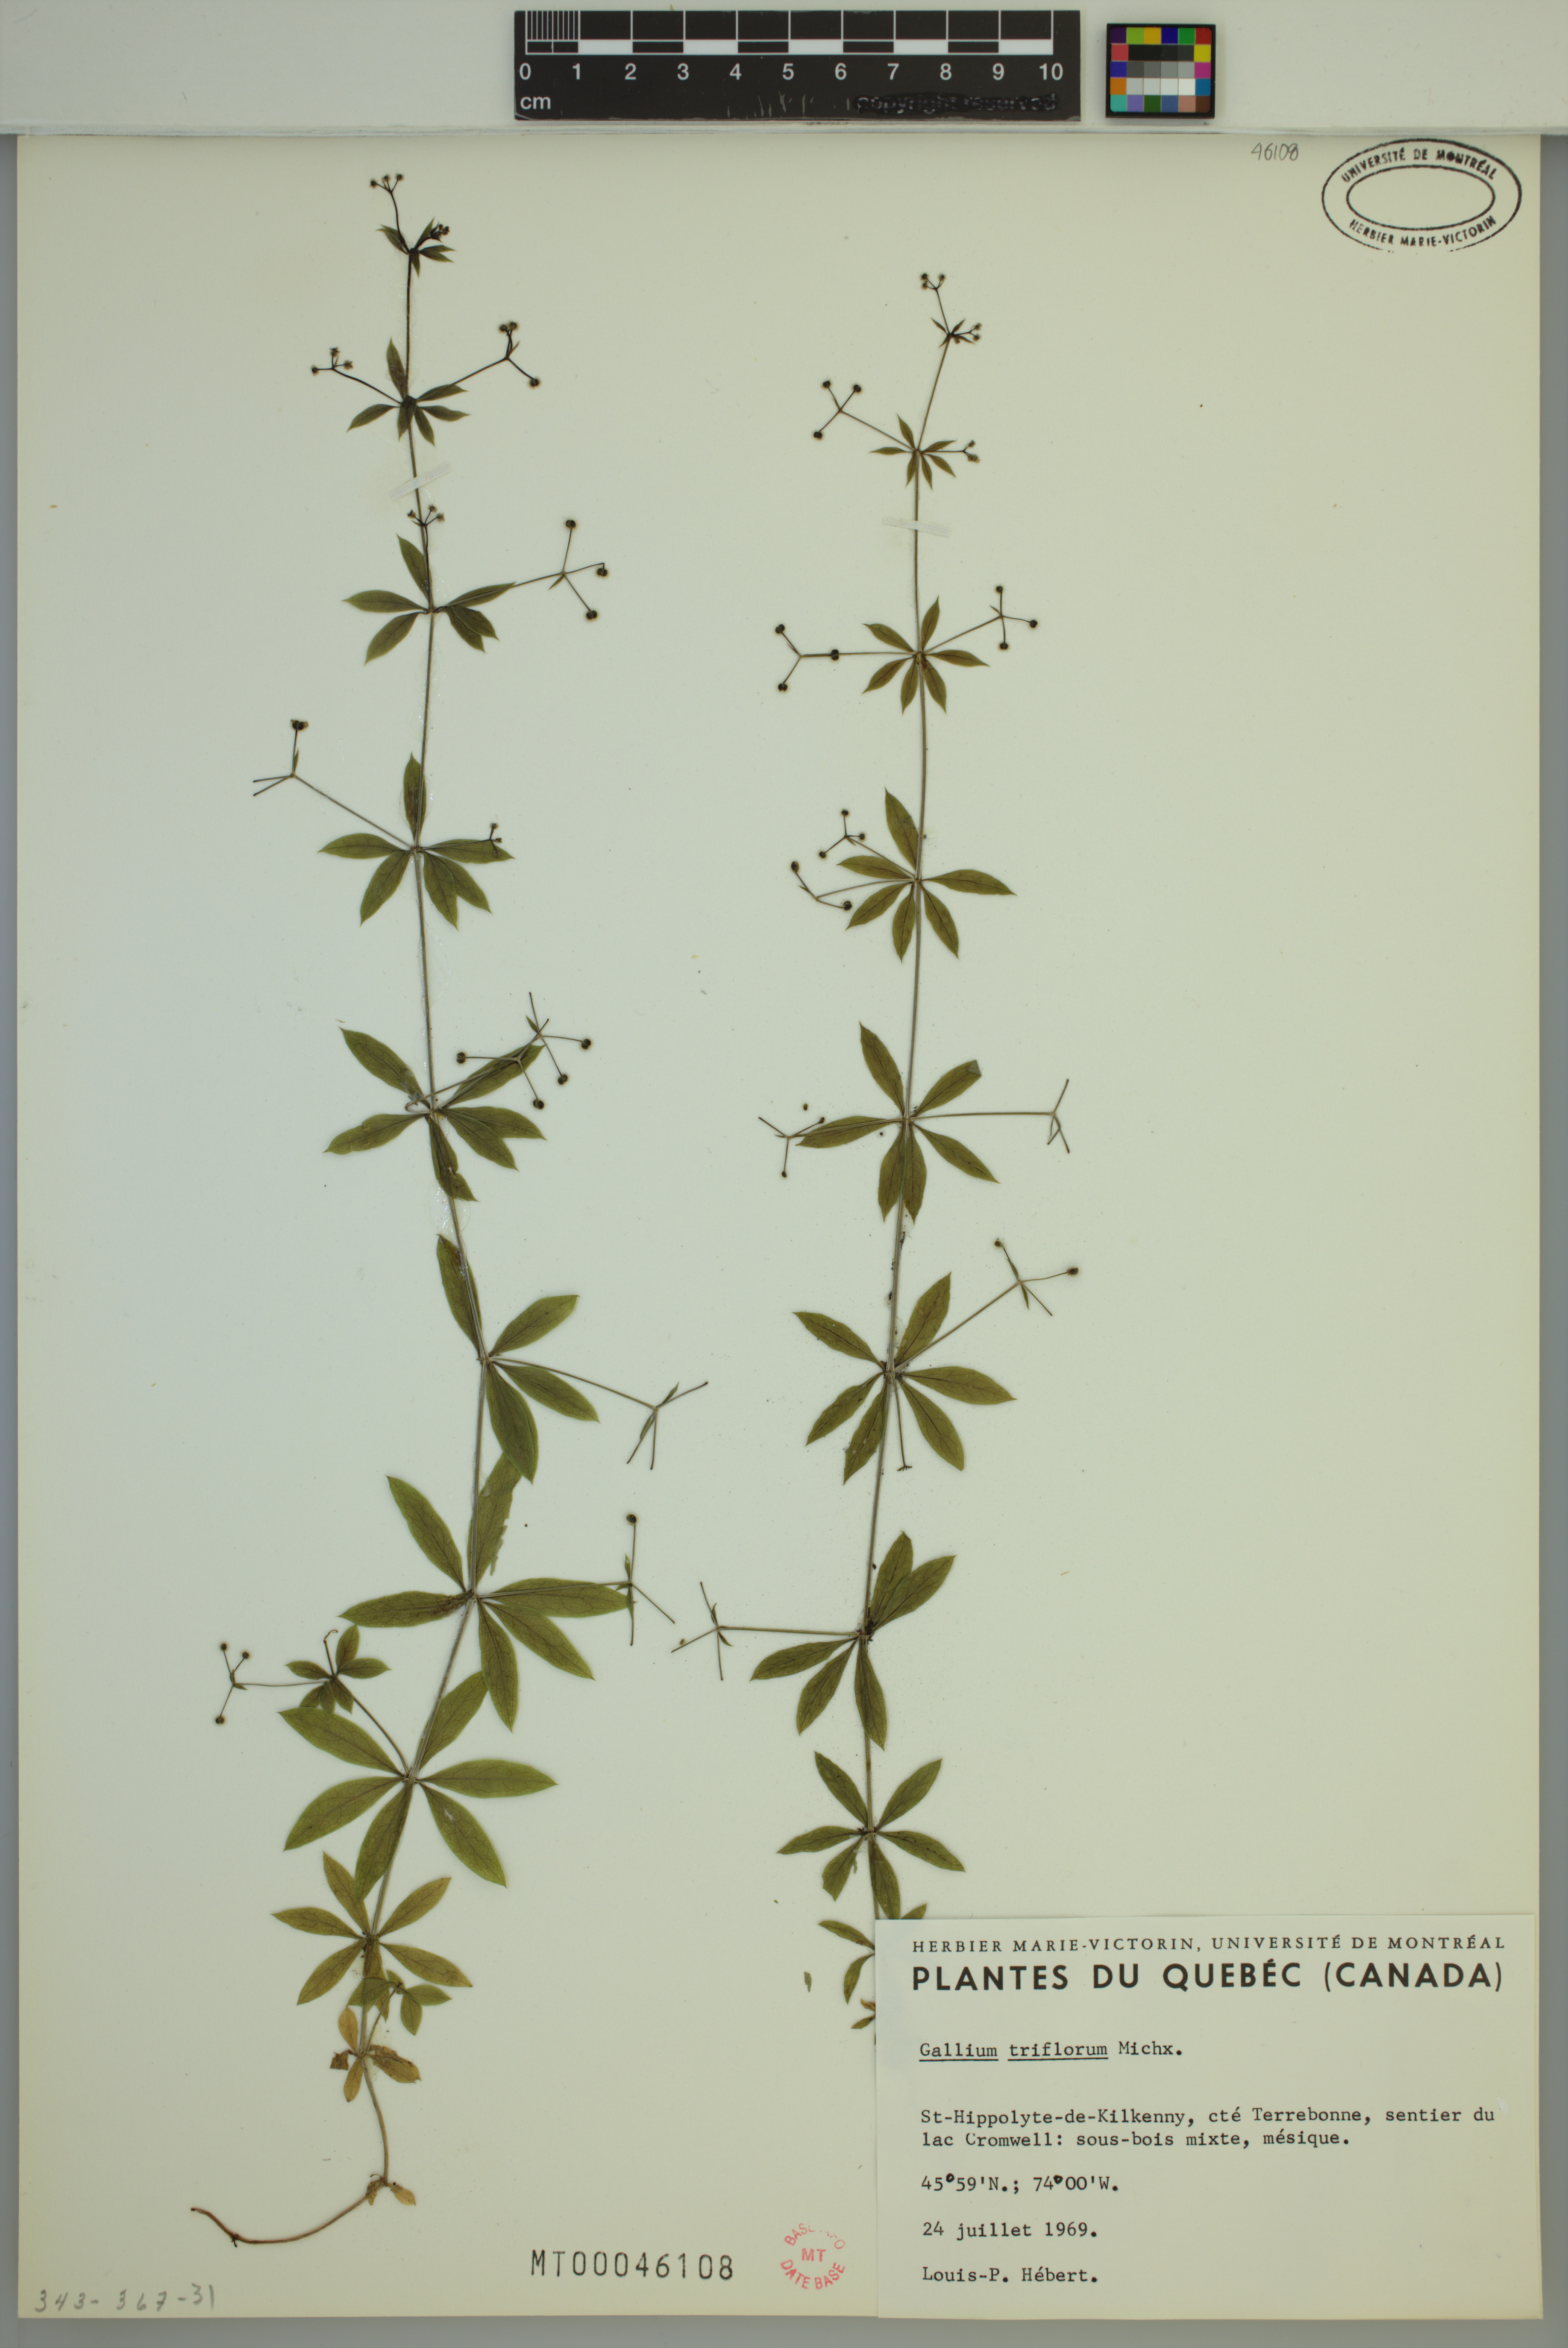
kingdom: Plantae
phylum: Tracheophyta
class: Magnoliopsida
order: Gentianales
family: Rubiaceae
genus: Galium
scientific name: Galium triflorum
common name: Fragrant bedstraw
